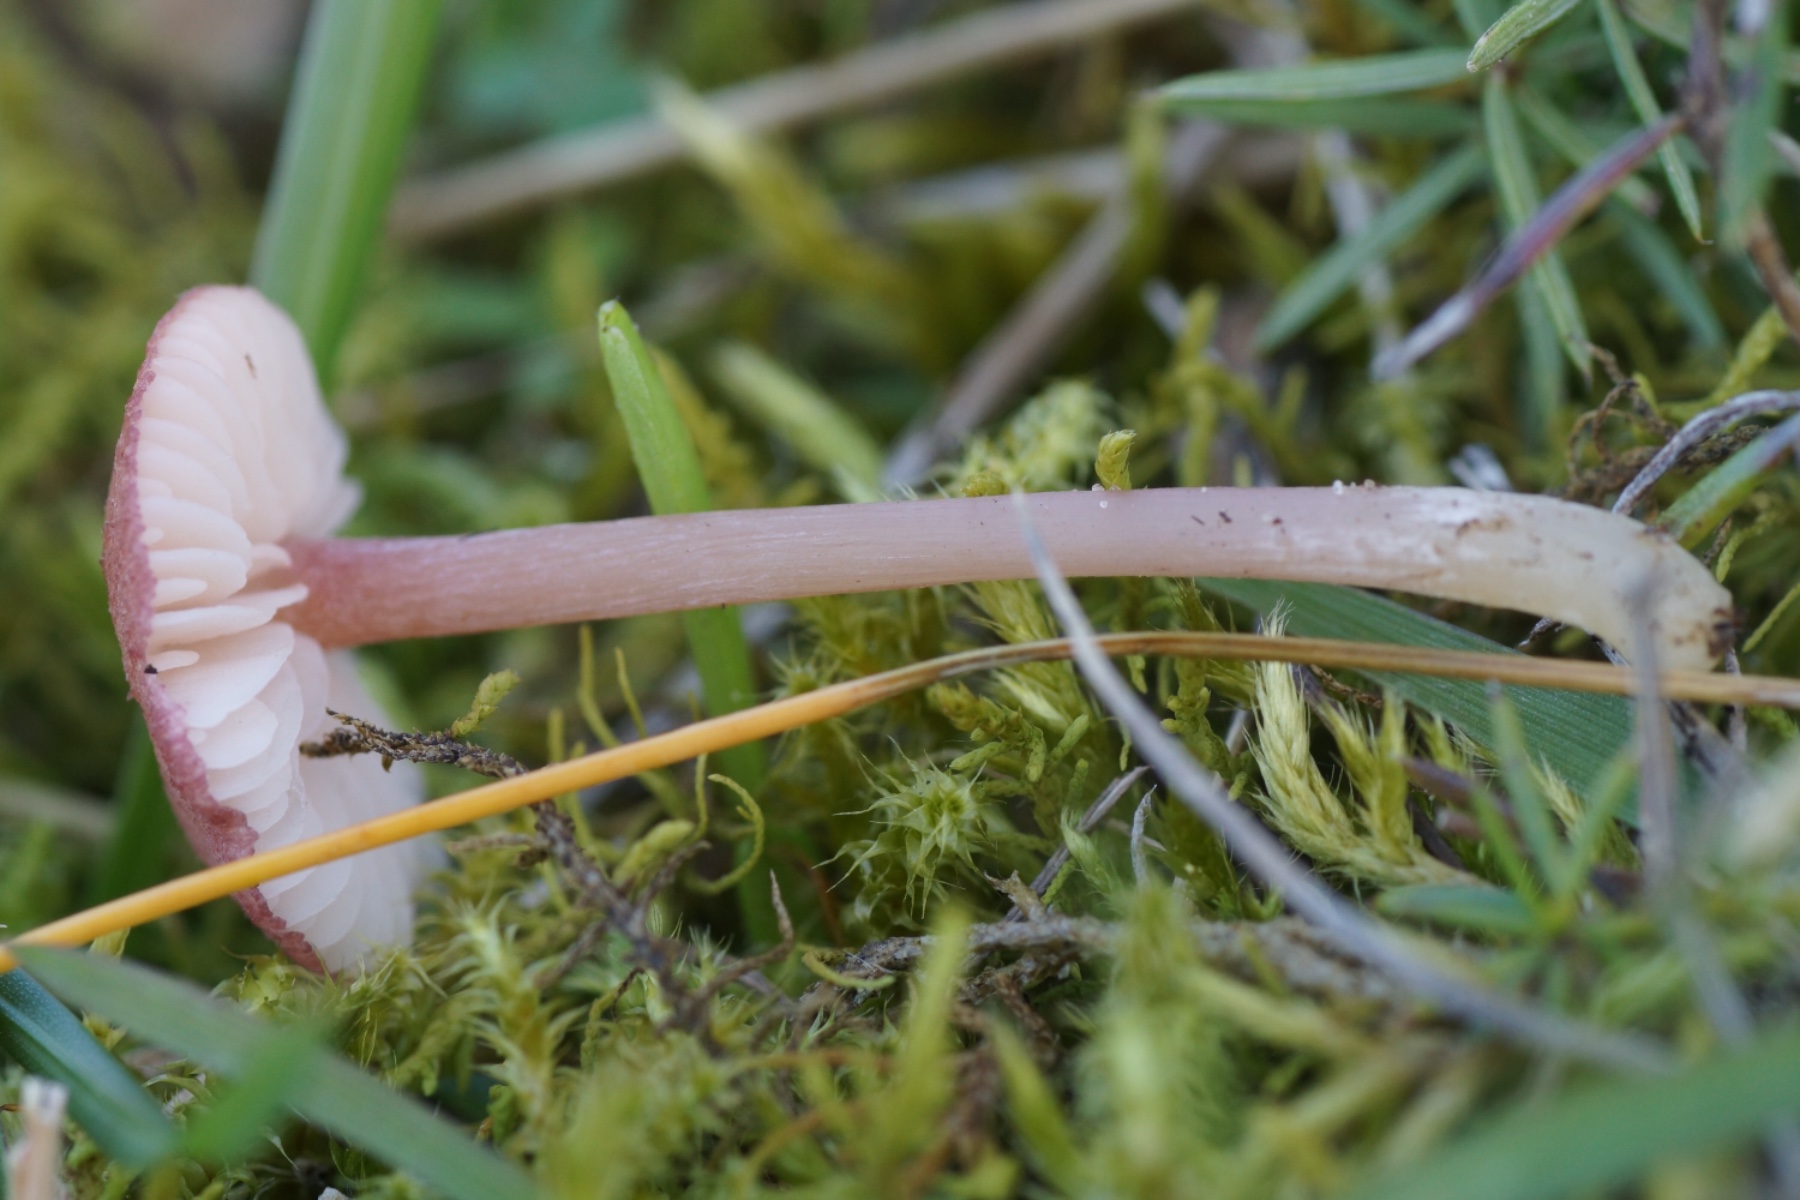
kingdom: Fungi
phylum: Basidiomycota
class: Agaricomycetes
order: Agaricales
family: Entolomataceae
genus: Entoloma
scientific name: Entoloma porphyrogriseum
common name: porfyrgrå rødblad
